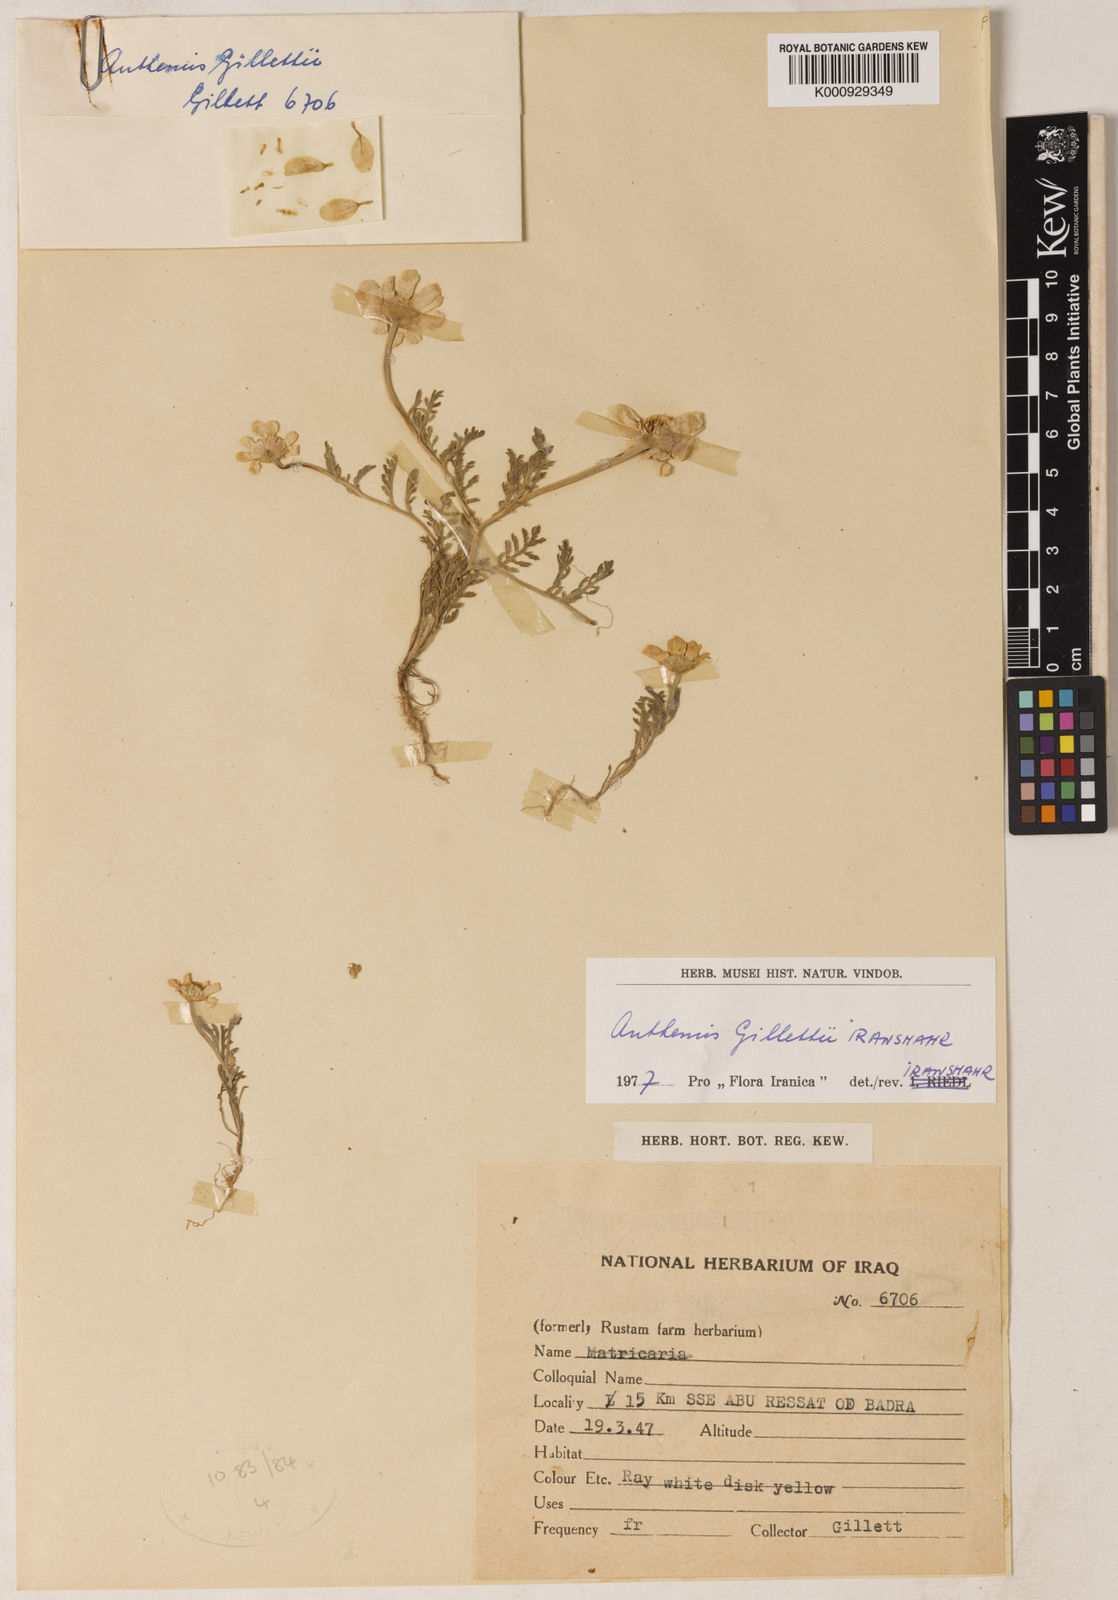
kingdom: Plantae
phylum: Tracheophyta
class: Magnoliopsida
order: Asterales
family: Asteraceae
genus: Anthemis
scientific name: Anthemis gillettii
